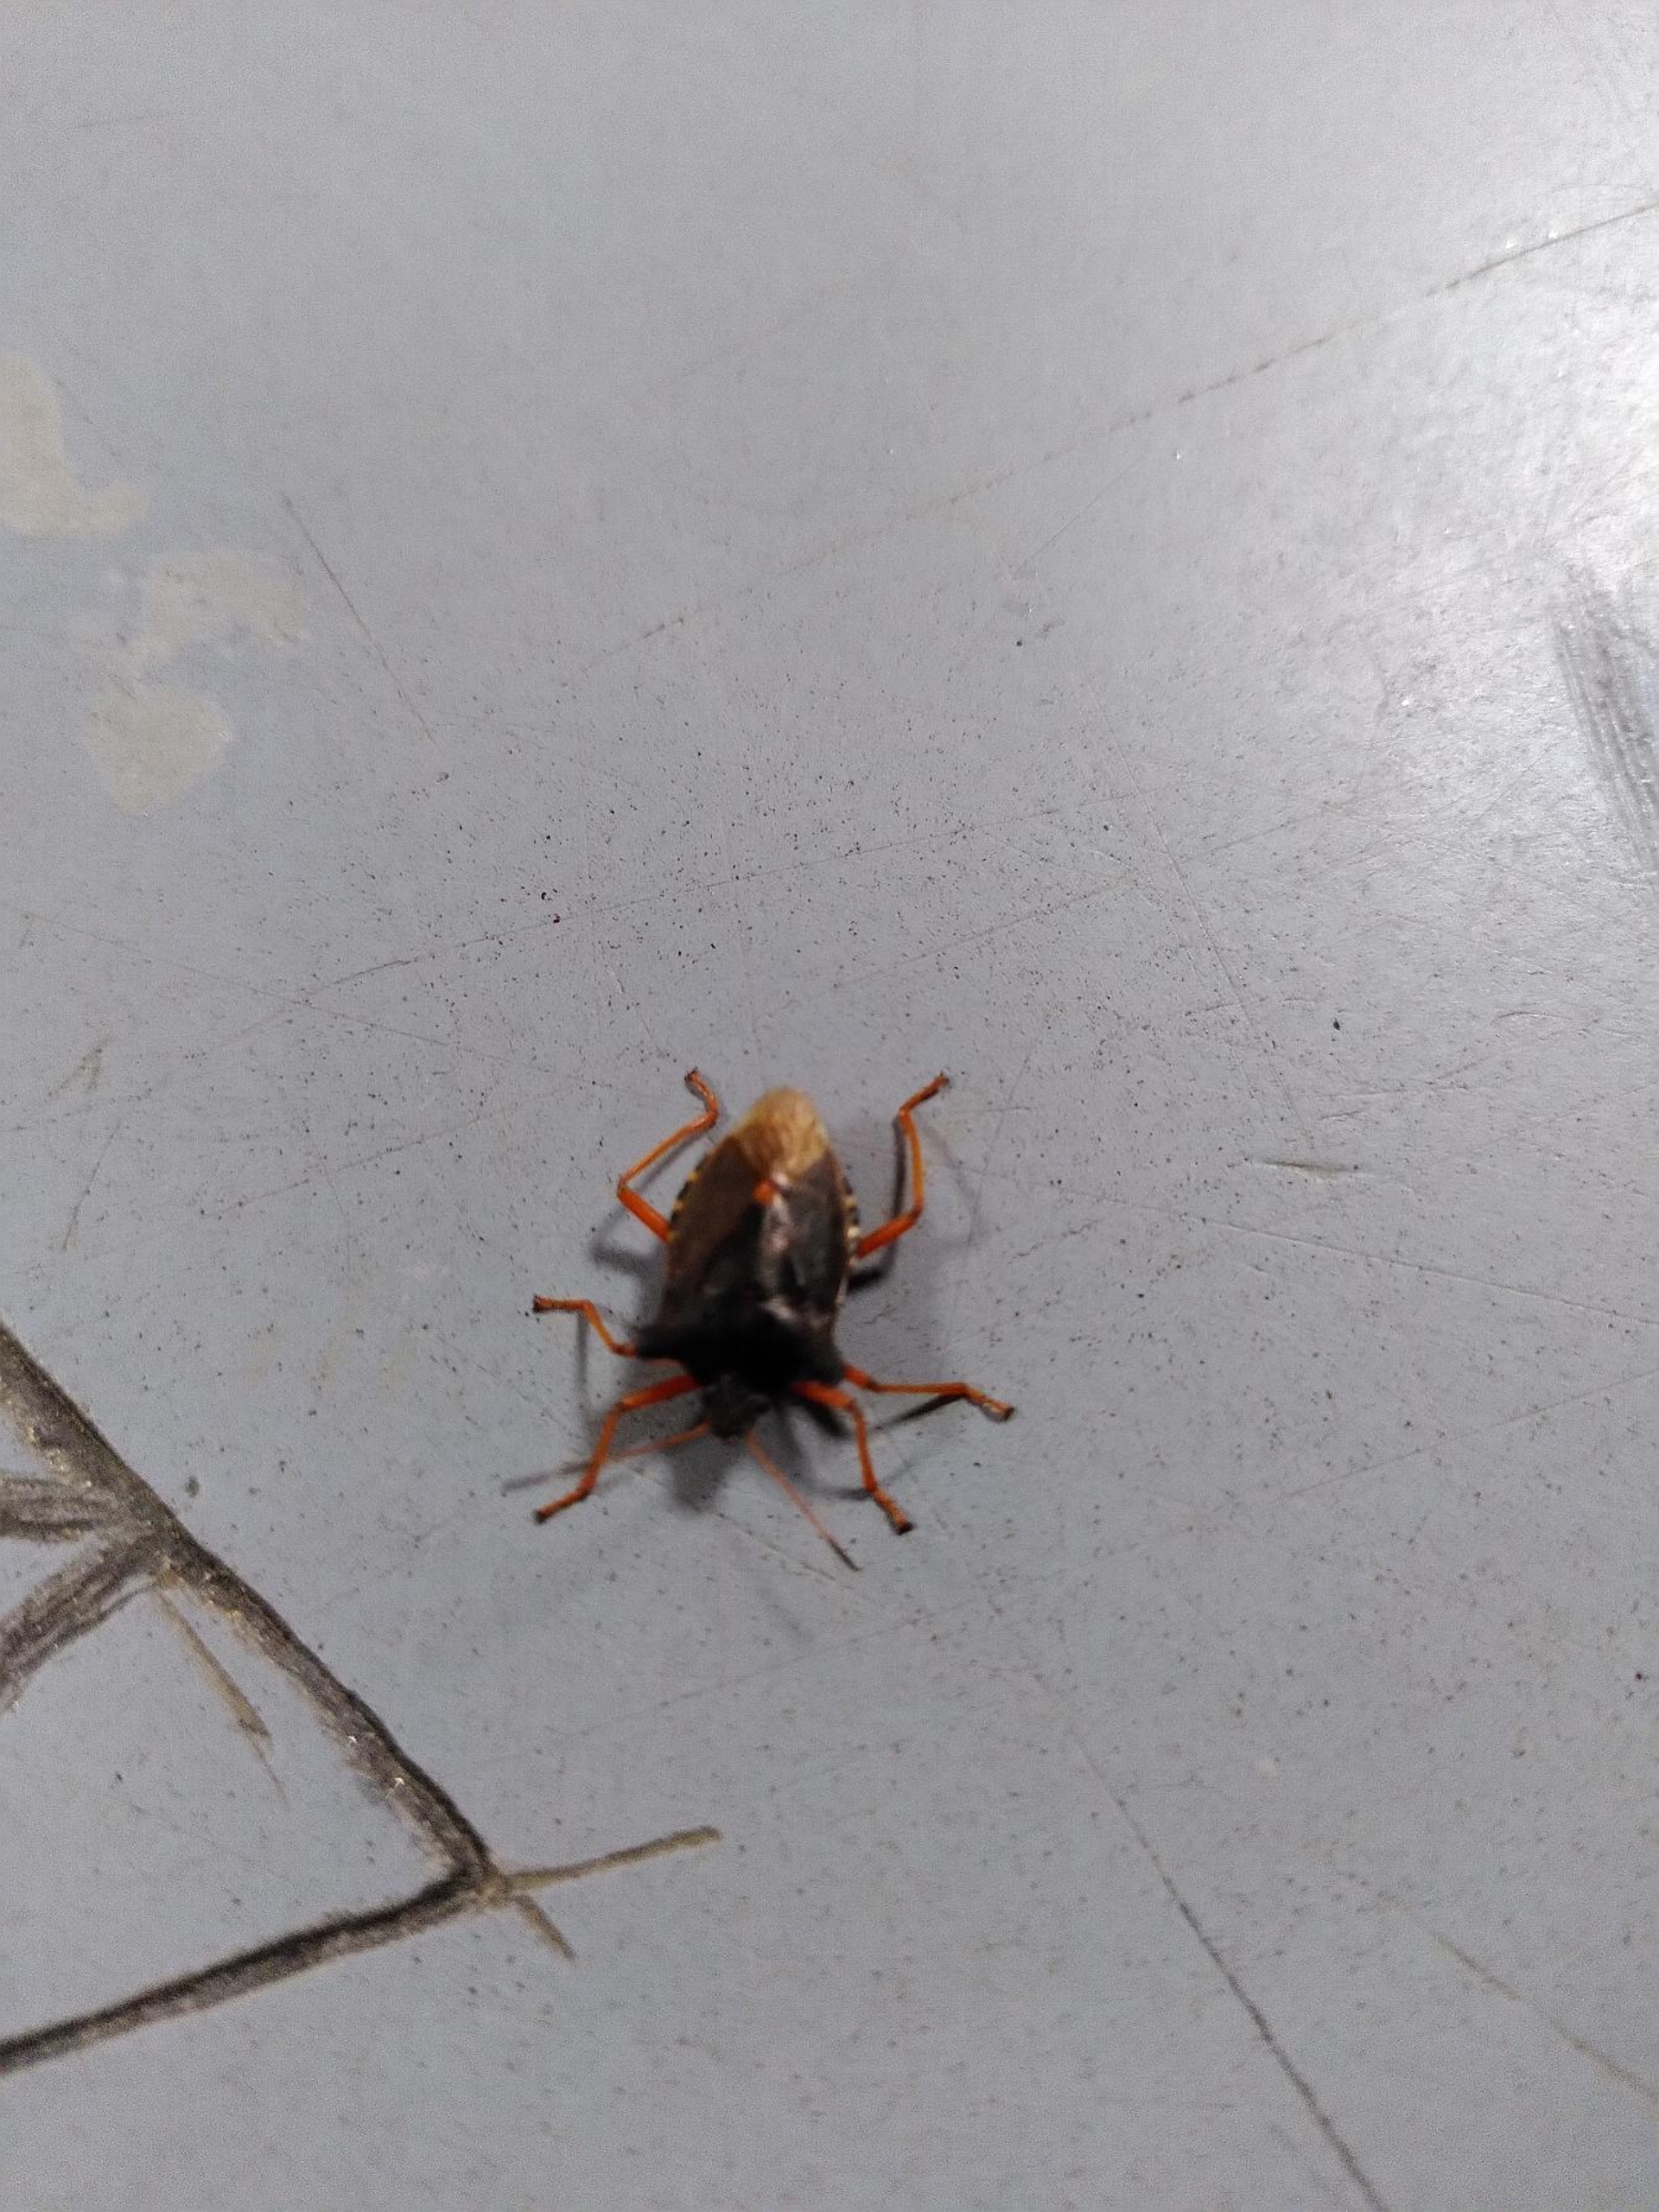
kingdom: Animalia
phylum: Arthropoda
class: Insecta
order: Hemiptera
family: Pentatomidae
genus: Pentatoma
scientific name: Pentatoma rufipes
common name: Rødbenet bredtæge
